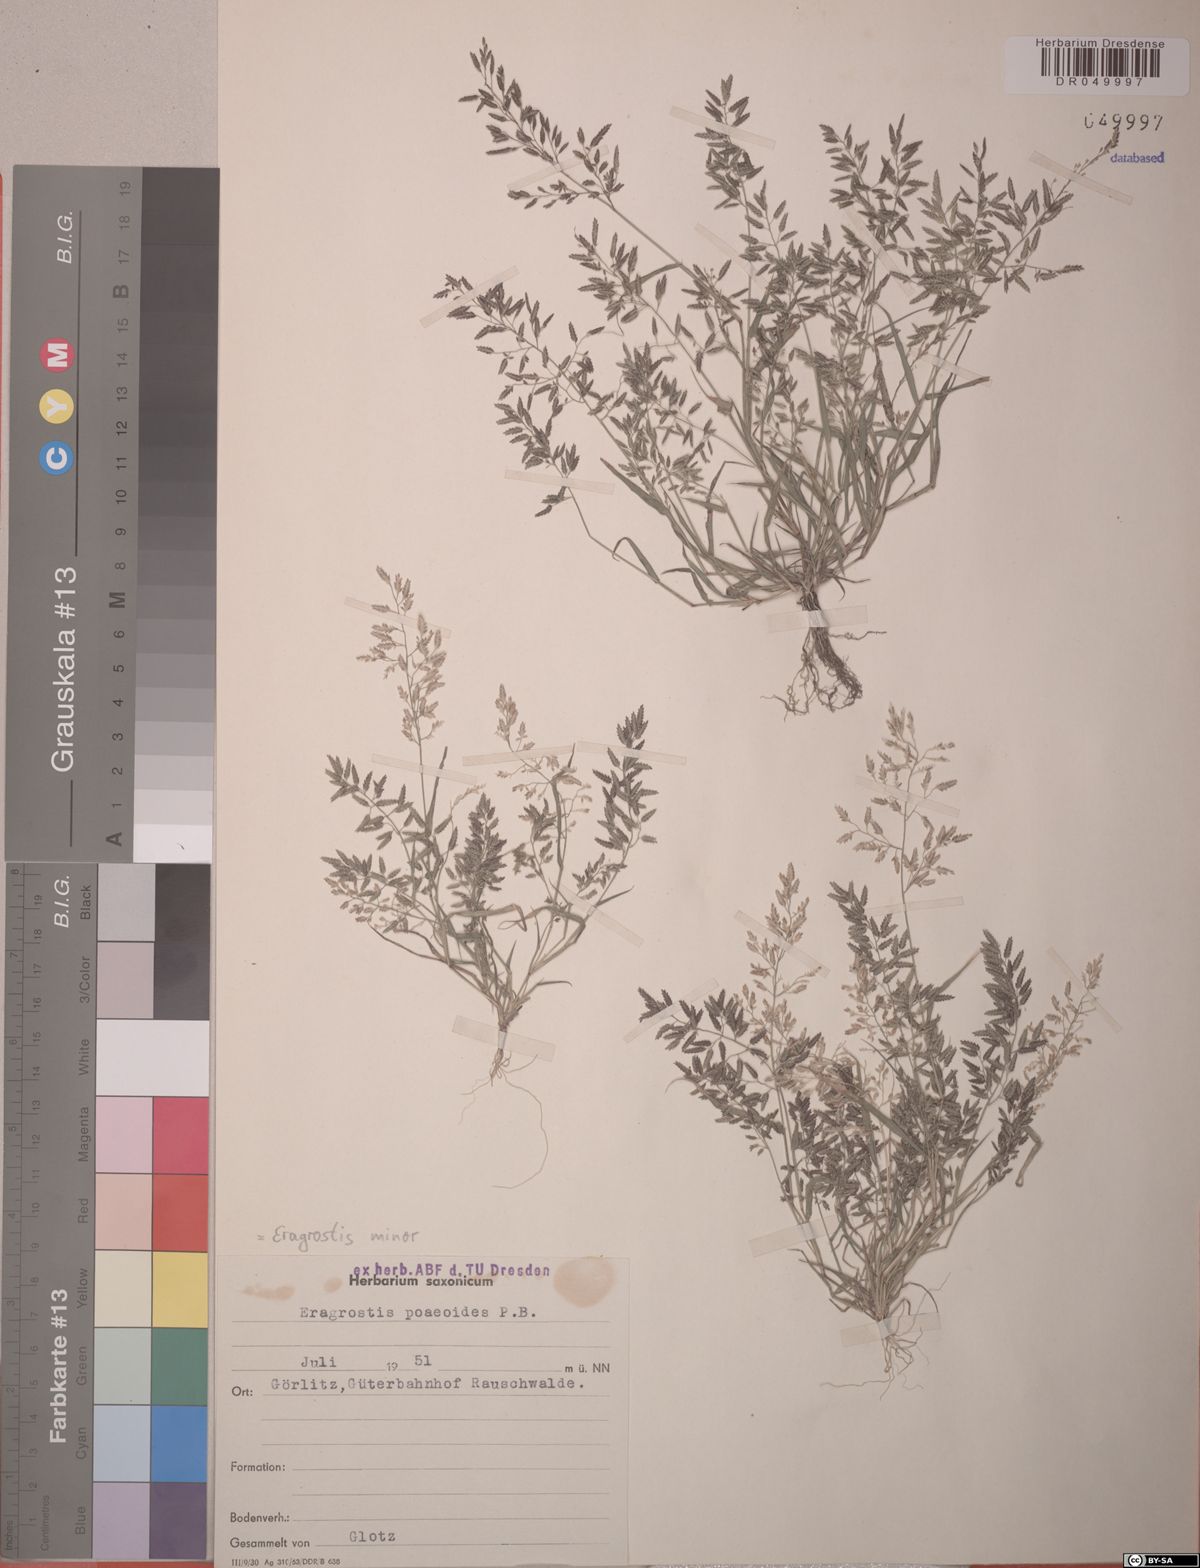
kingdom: Plantae
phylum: Tracheophyta
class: Liliopsida
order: Poales
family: Poaceae
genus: Eragrostis
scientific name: Eragrostis minor
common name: Small love-grass
